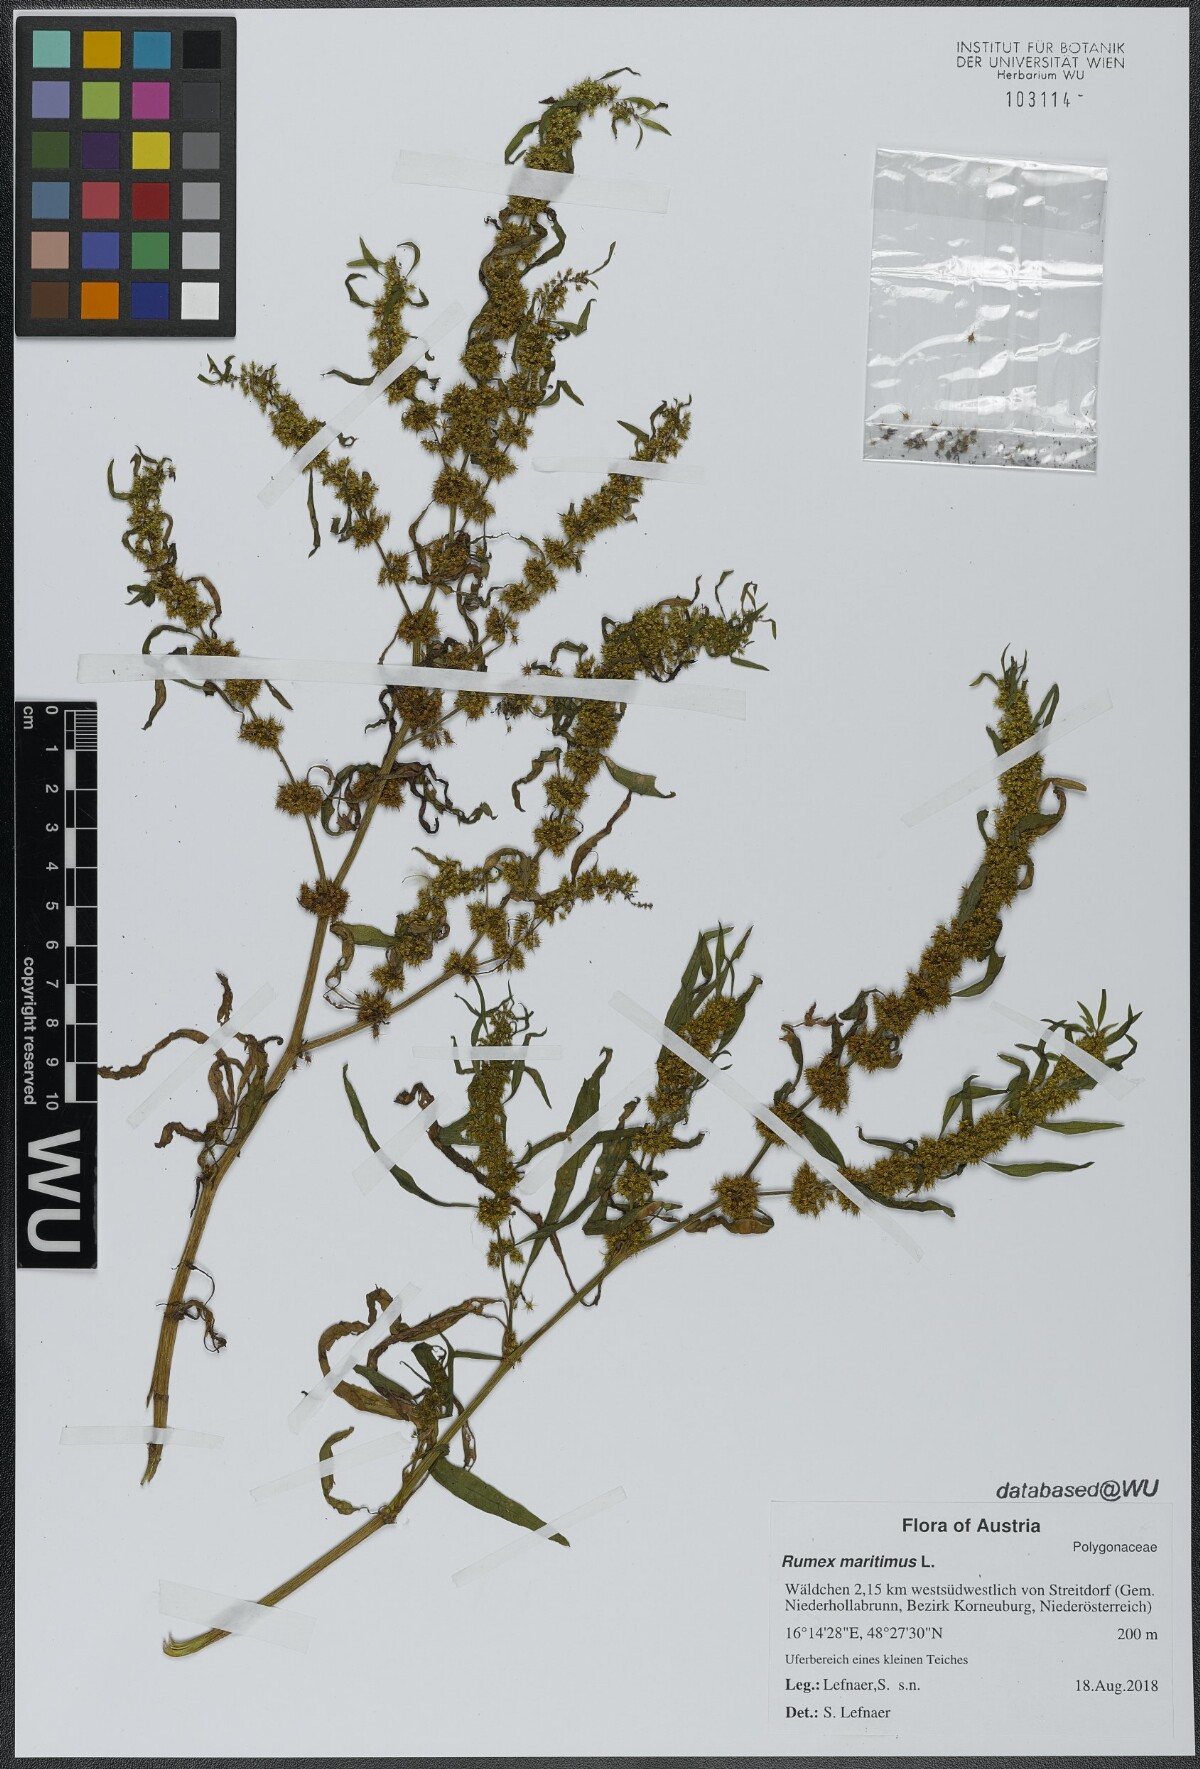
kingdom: Plantae
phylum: Tracheophyta
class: Magnoliopsida
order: Caryophyllales
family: Polygonaceae
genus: Rumex
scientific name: Rumex maritimus
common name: Golden dock
